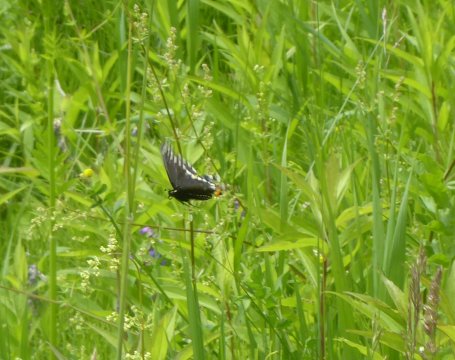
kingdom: Animalia
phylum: Arthropoda
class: Insecta
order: Lepidoptera
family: Papilionidae
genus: Papilio
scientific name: Papilio polyxenes
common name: Black Swallowtail
